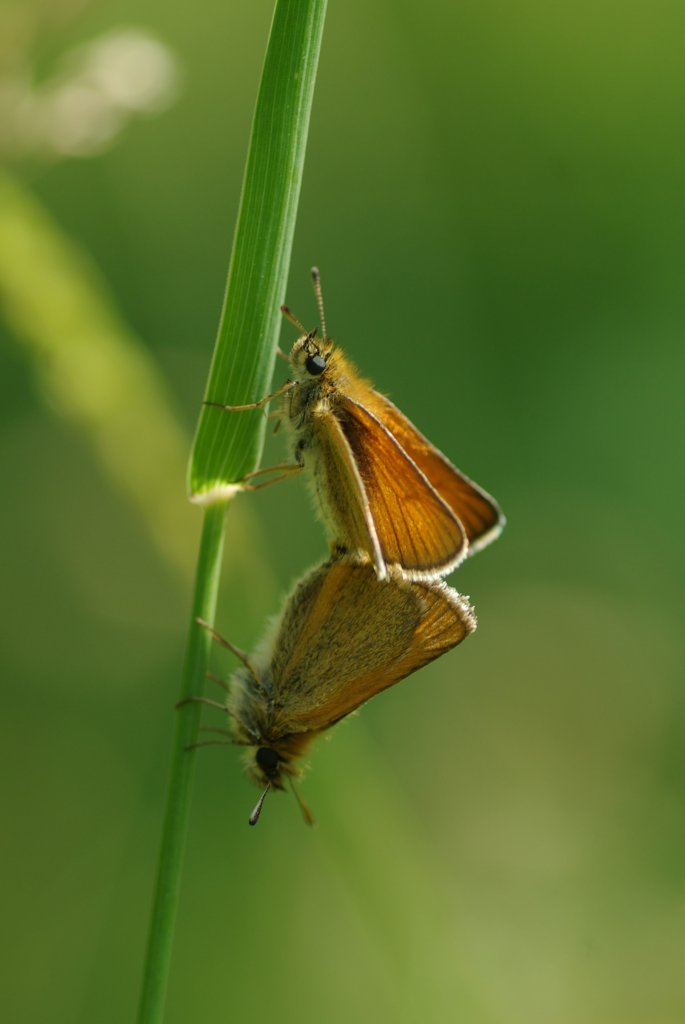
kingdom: Animalia
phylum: Arthropoda
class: Insecta
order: Lepidoptera
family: Hesperiidae
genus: Thymelicus
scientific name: Thymelicus lineola
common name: European Skipper
